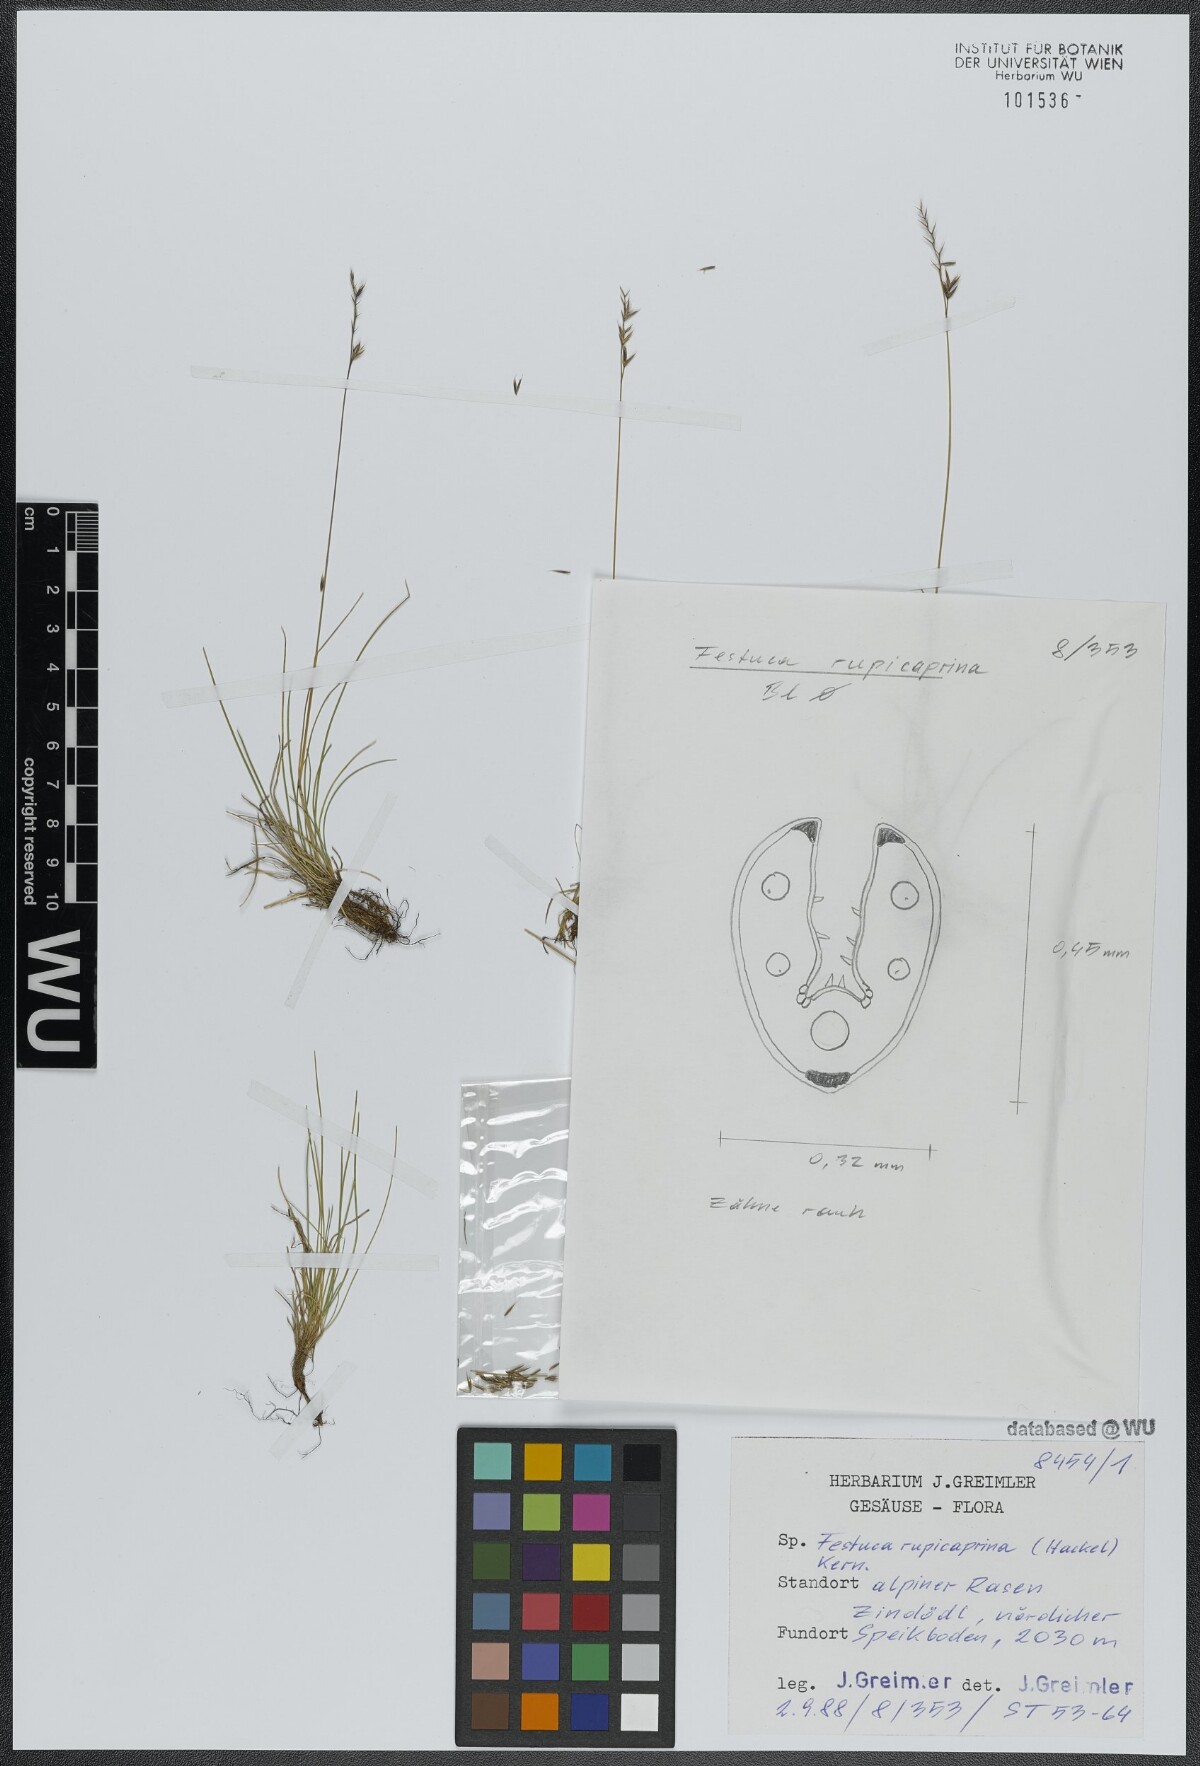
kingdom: Plantae
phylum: Tracheophyta
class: Liliopsida
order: Poales
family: Poaceae
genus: Festuca
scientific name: Festuca rupicaprina
